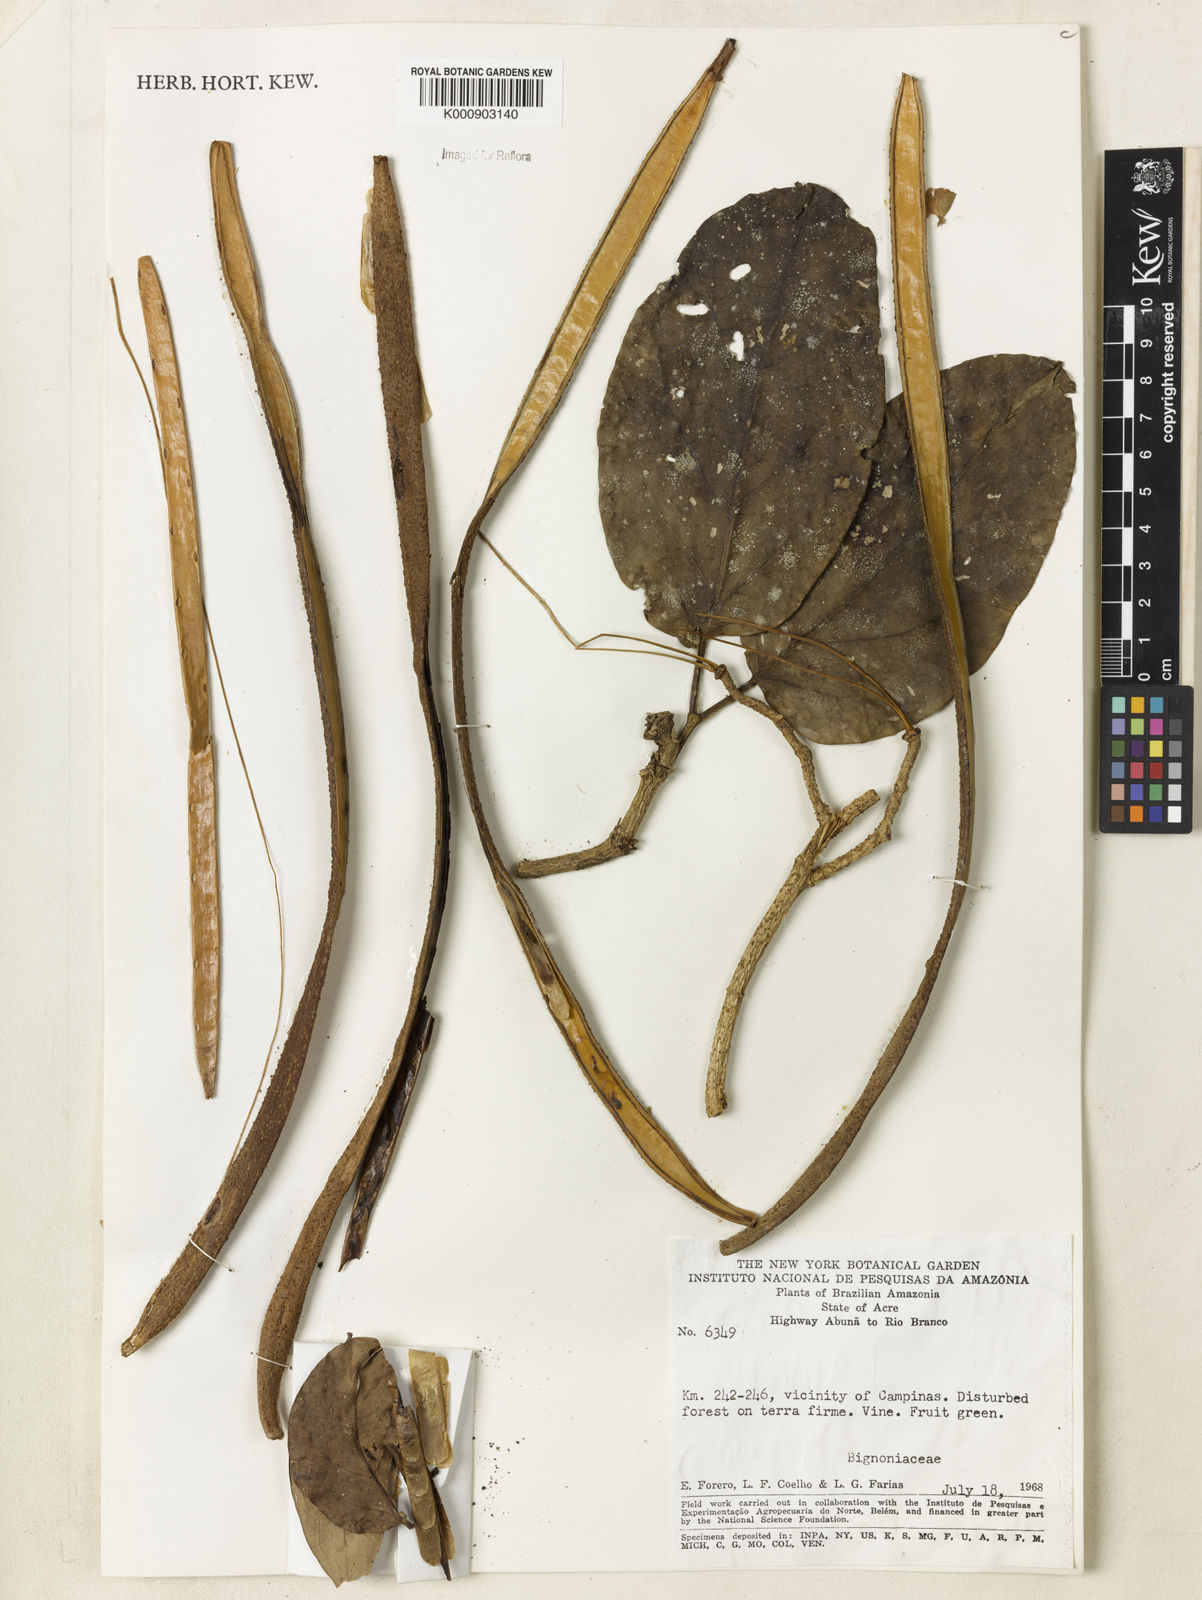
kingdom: Plantae
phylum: Tracheophyta
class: Magnoliopsida
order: Lamiales
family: Bignoniaceae
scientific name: Bignoniaceae
